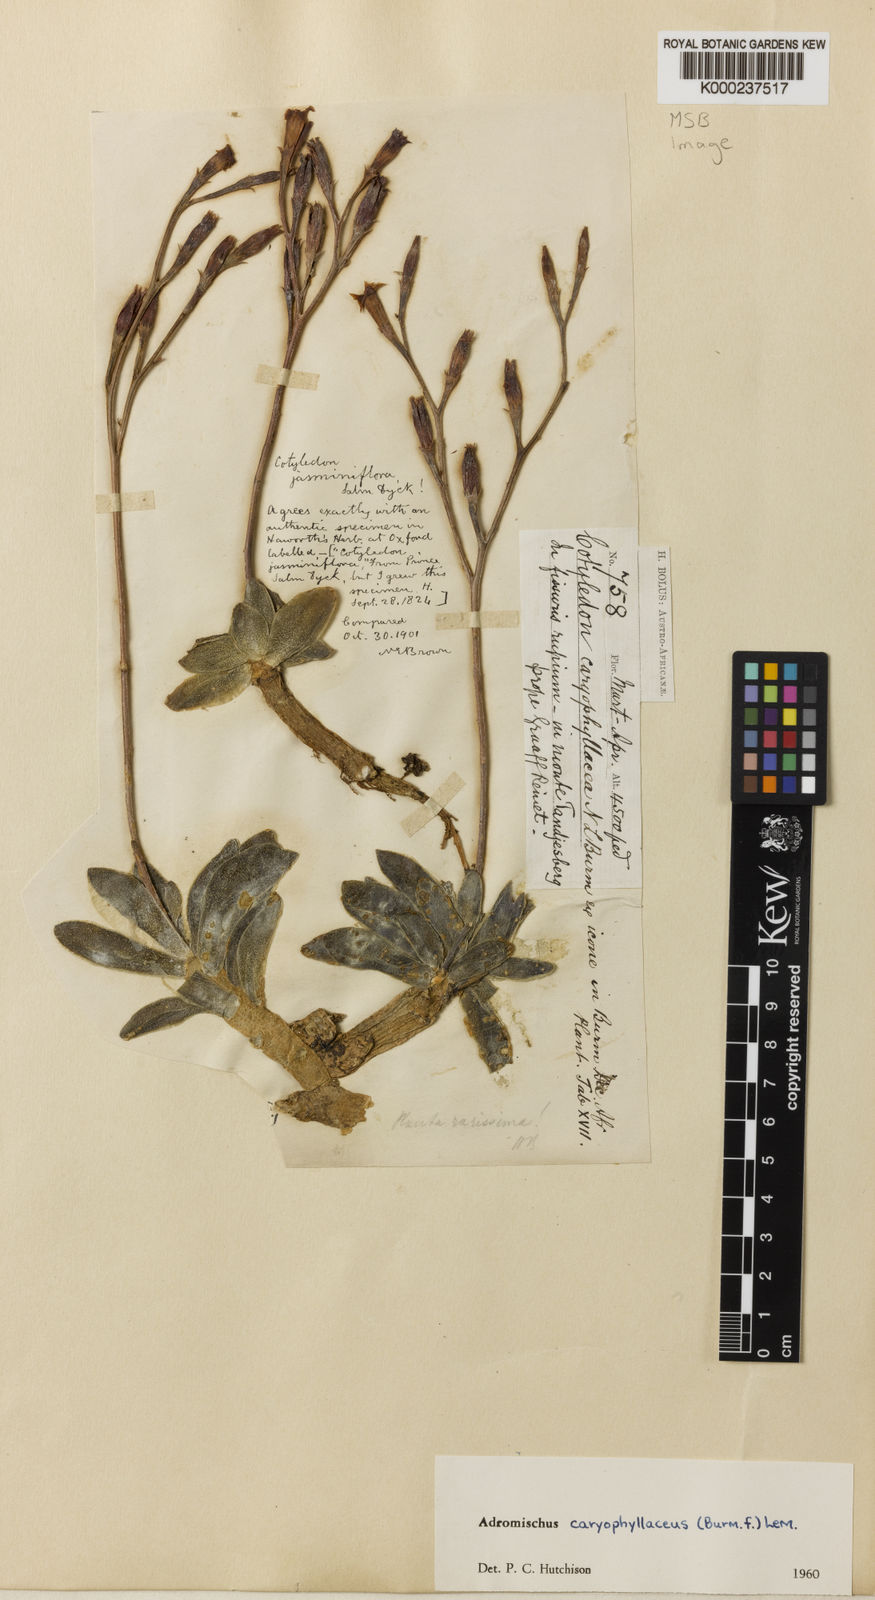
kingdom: Plantae
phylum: Tracheophyta
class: Magnoliopsida
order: Saxifragales
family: Crassulaceae
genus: Adromischus
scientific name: Adromischus fallax
